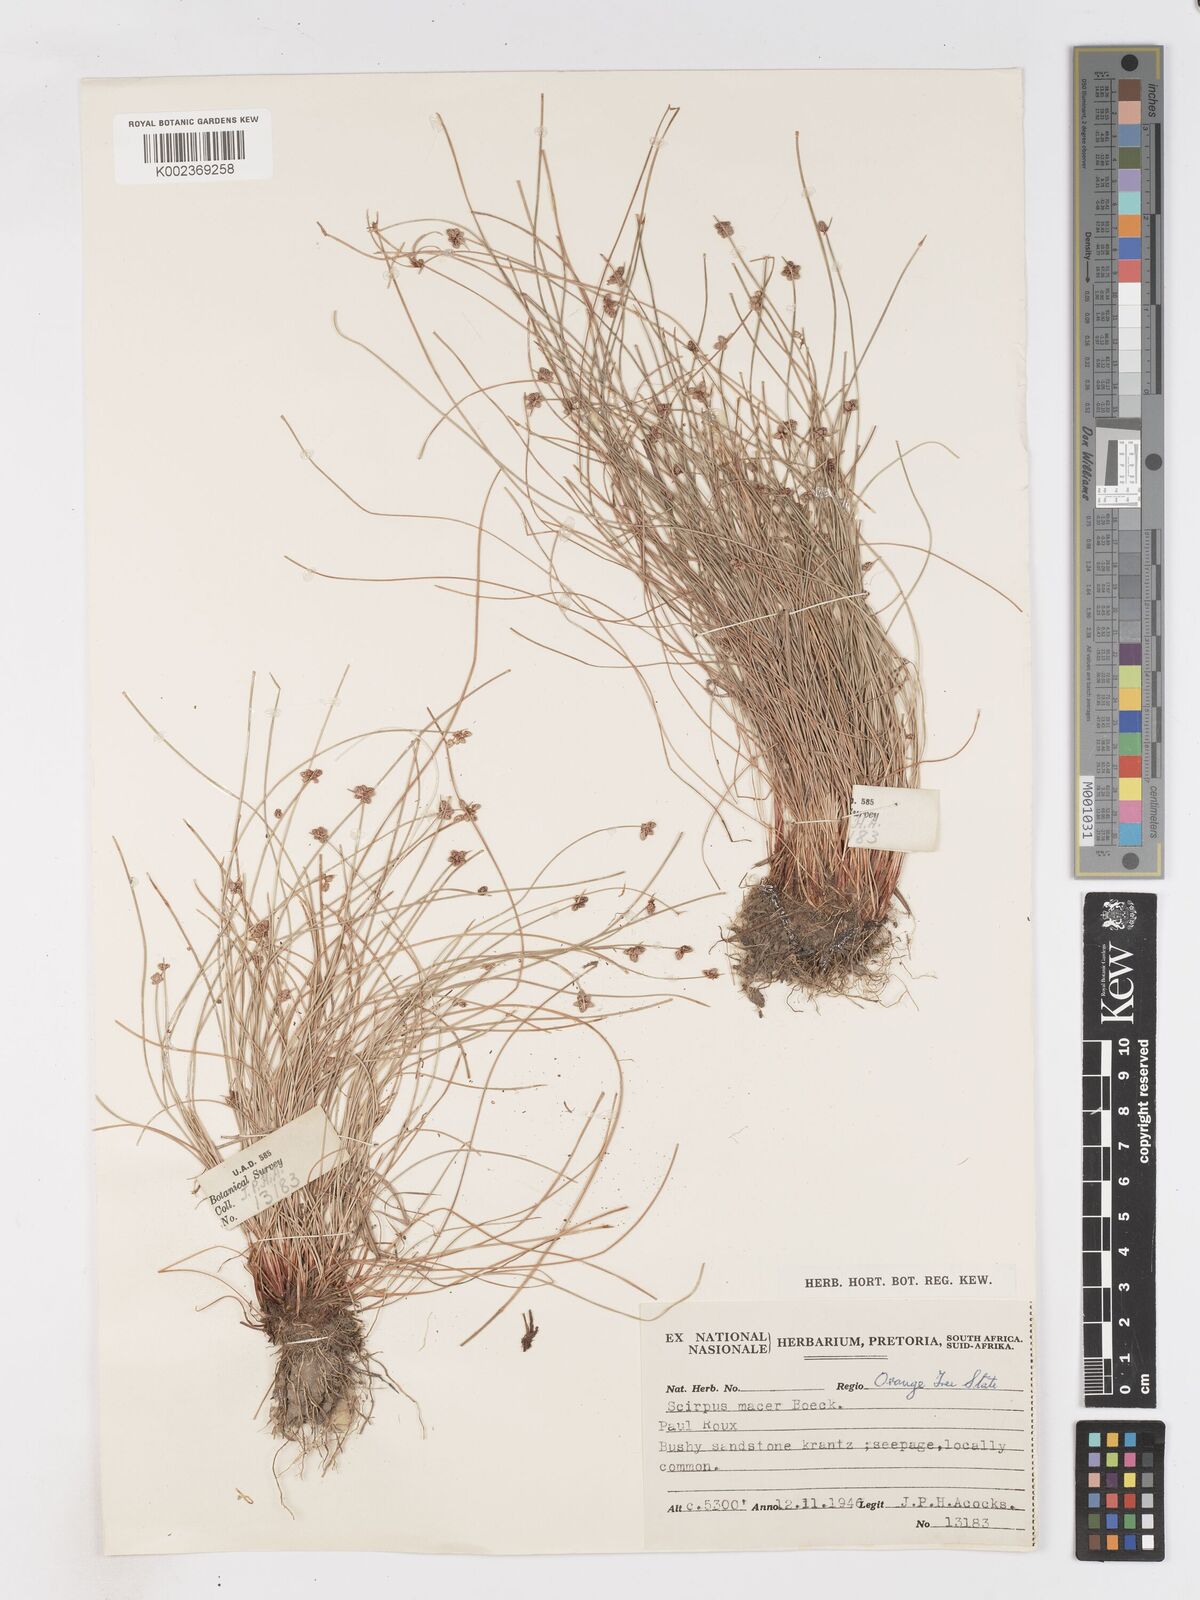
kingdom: Plantae
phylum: Tracheophyta
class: Liliopsida
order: Poales
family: Cyperaceae
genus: Isolepis
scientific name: Isolepis costata
